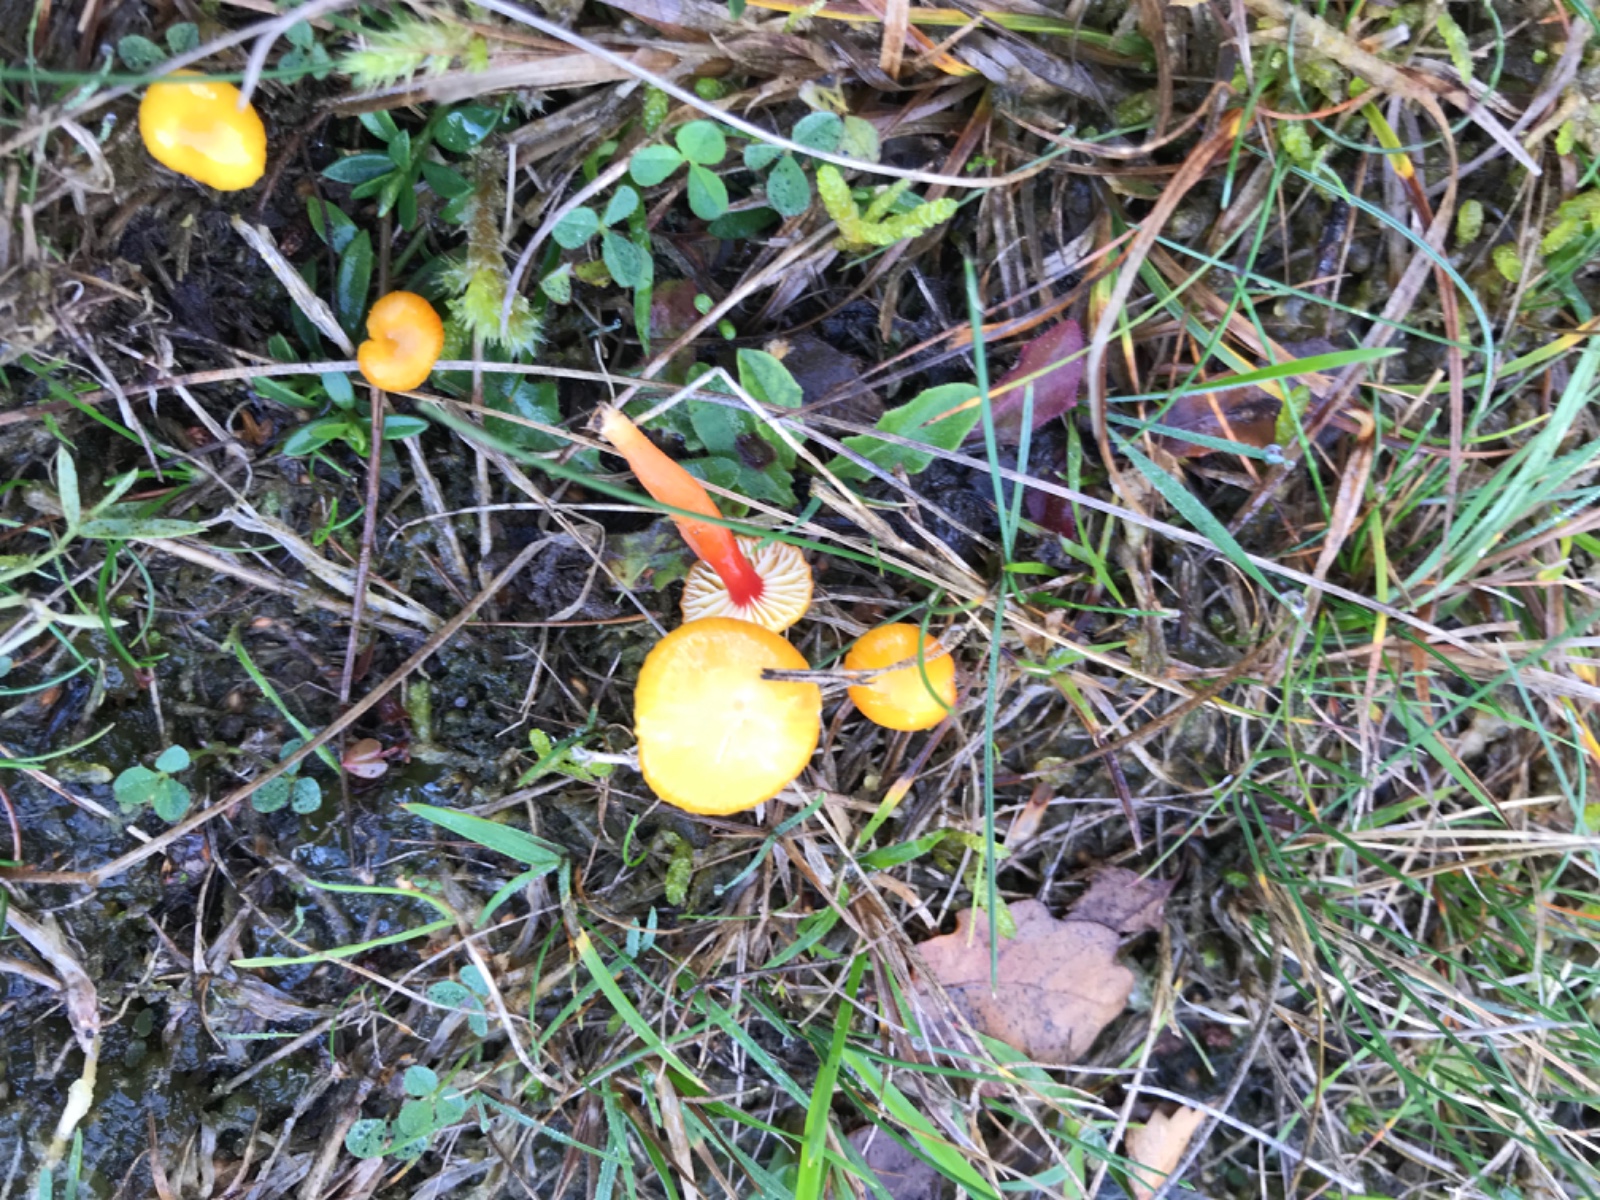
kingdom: Fungi
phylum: Basidiomycota
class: Agaricomycetes
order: Agaricales
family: Hygrophoraceae
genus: Hygrocybe
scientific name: Hygrocybe insipida
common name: liden vokshat
